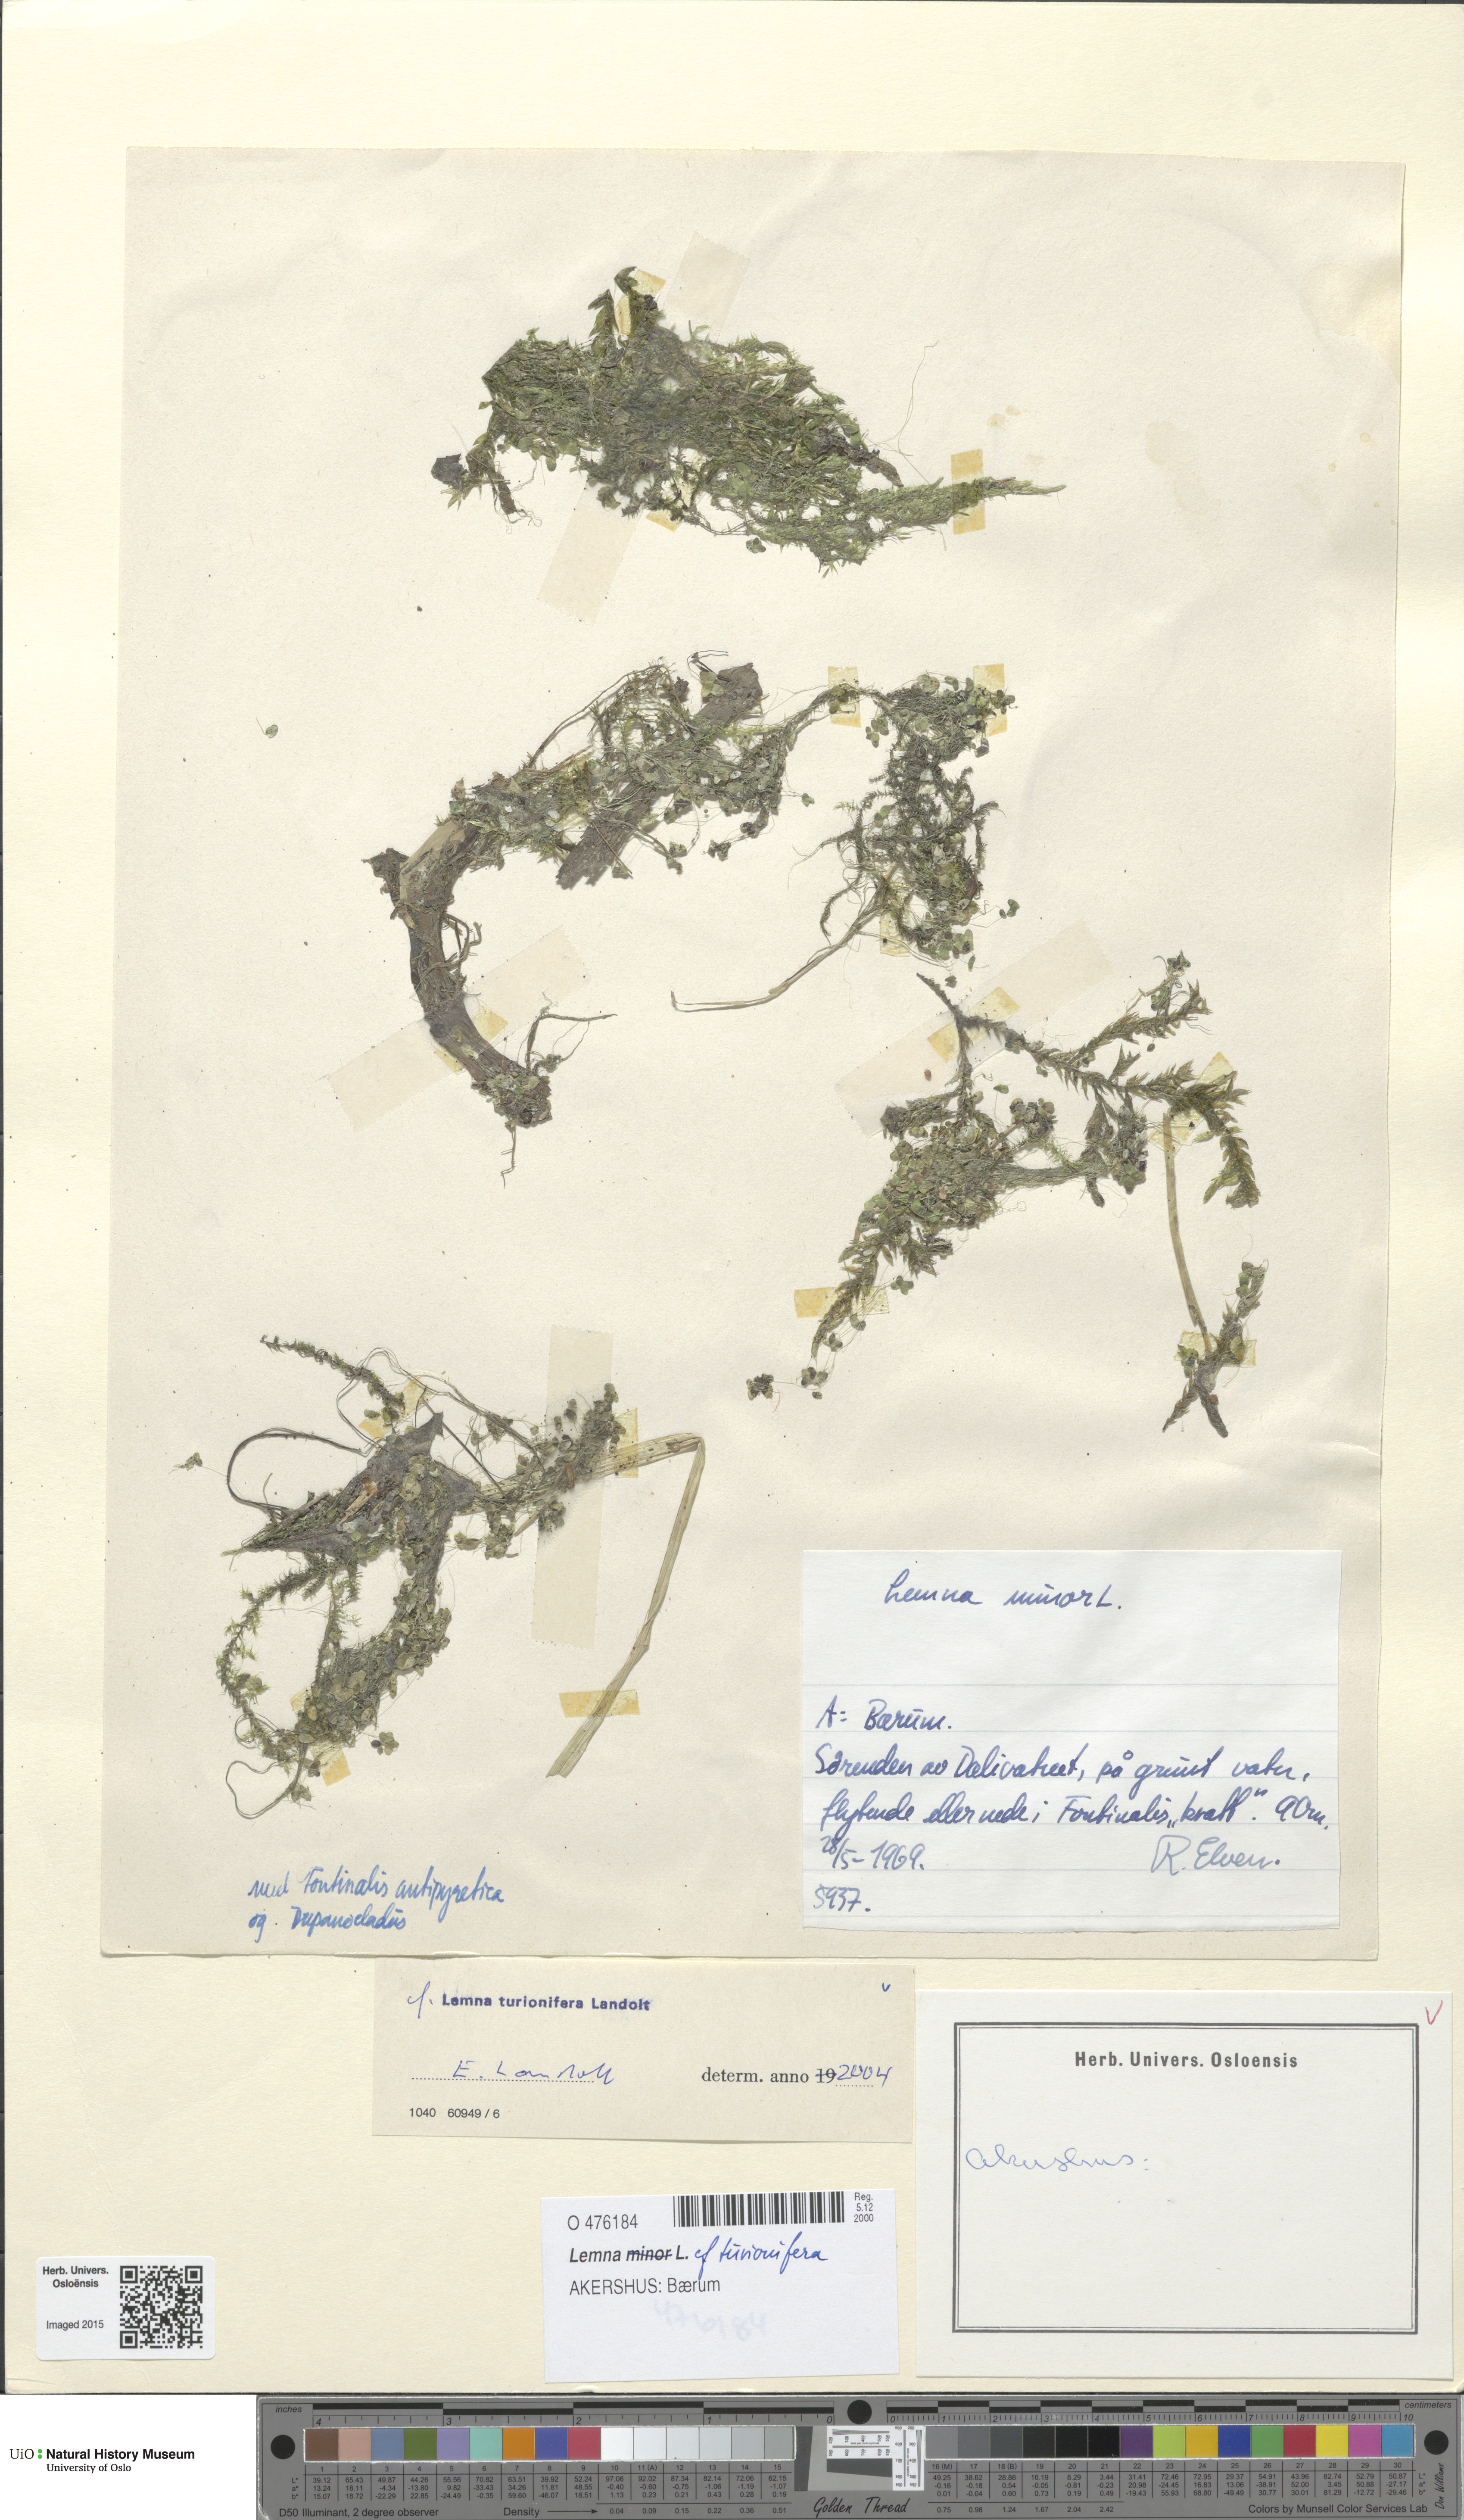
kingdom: Plantae
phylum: Tracheophyta
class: Liliopsida
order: Alismatales
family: Araceae
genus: Lemna
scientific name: Lemna turionifera
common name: Perennial duckweed
